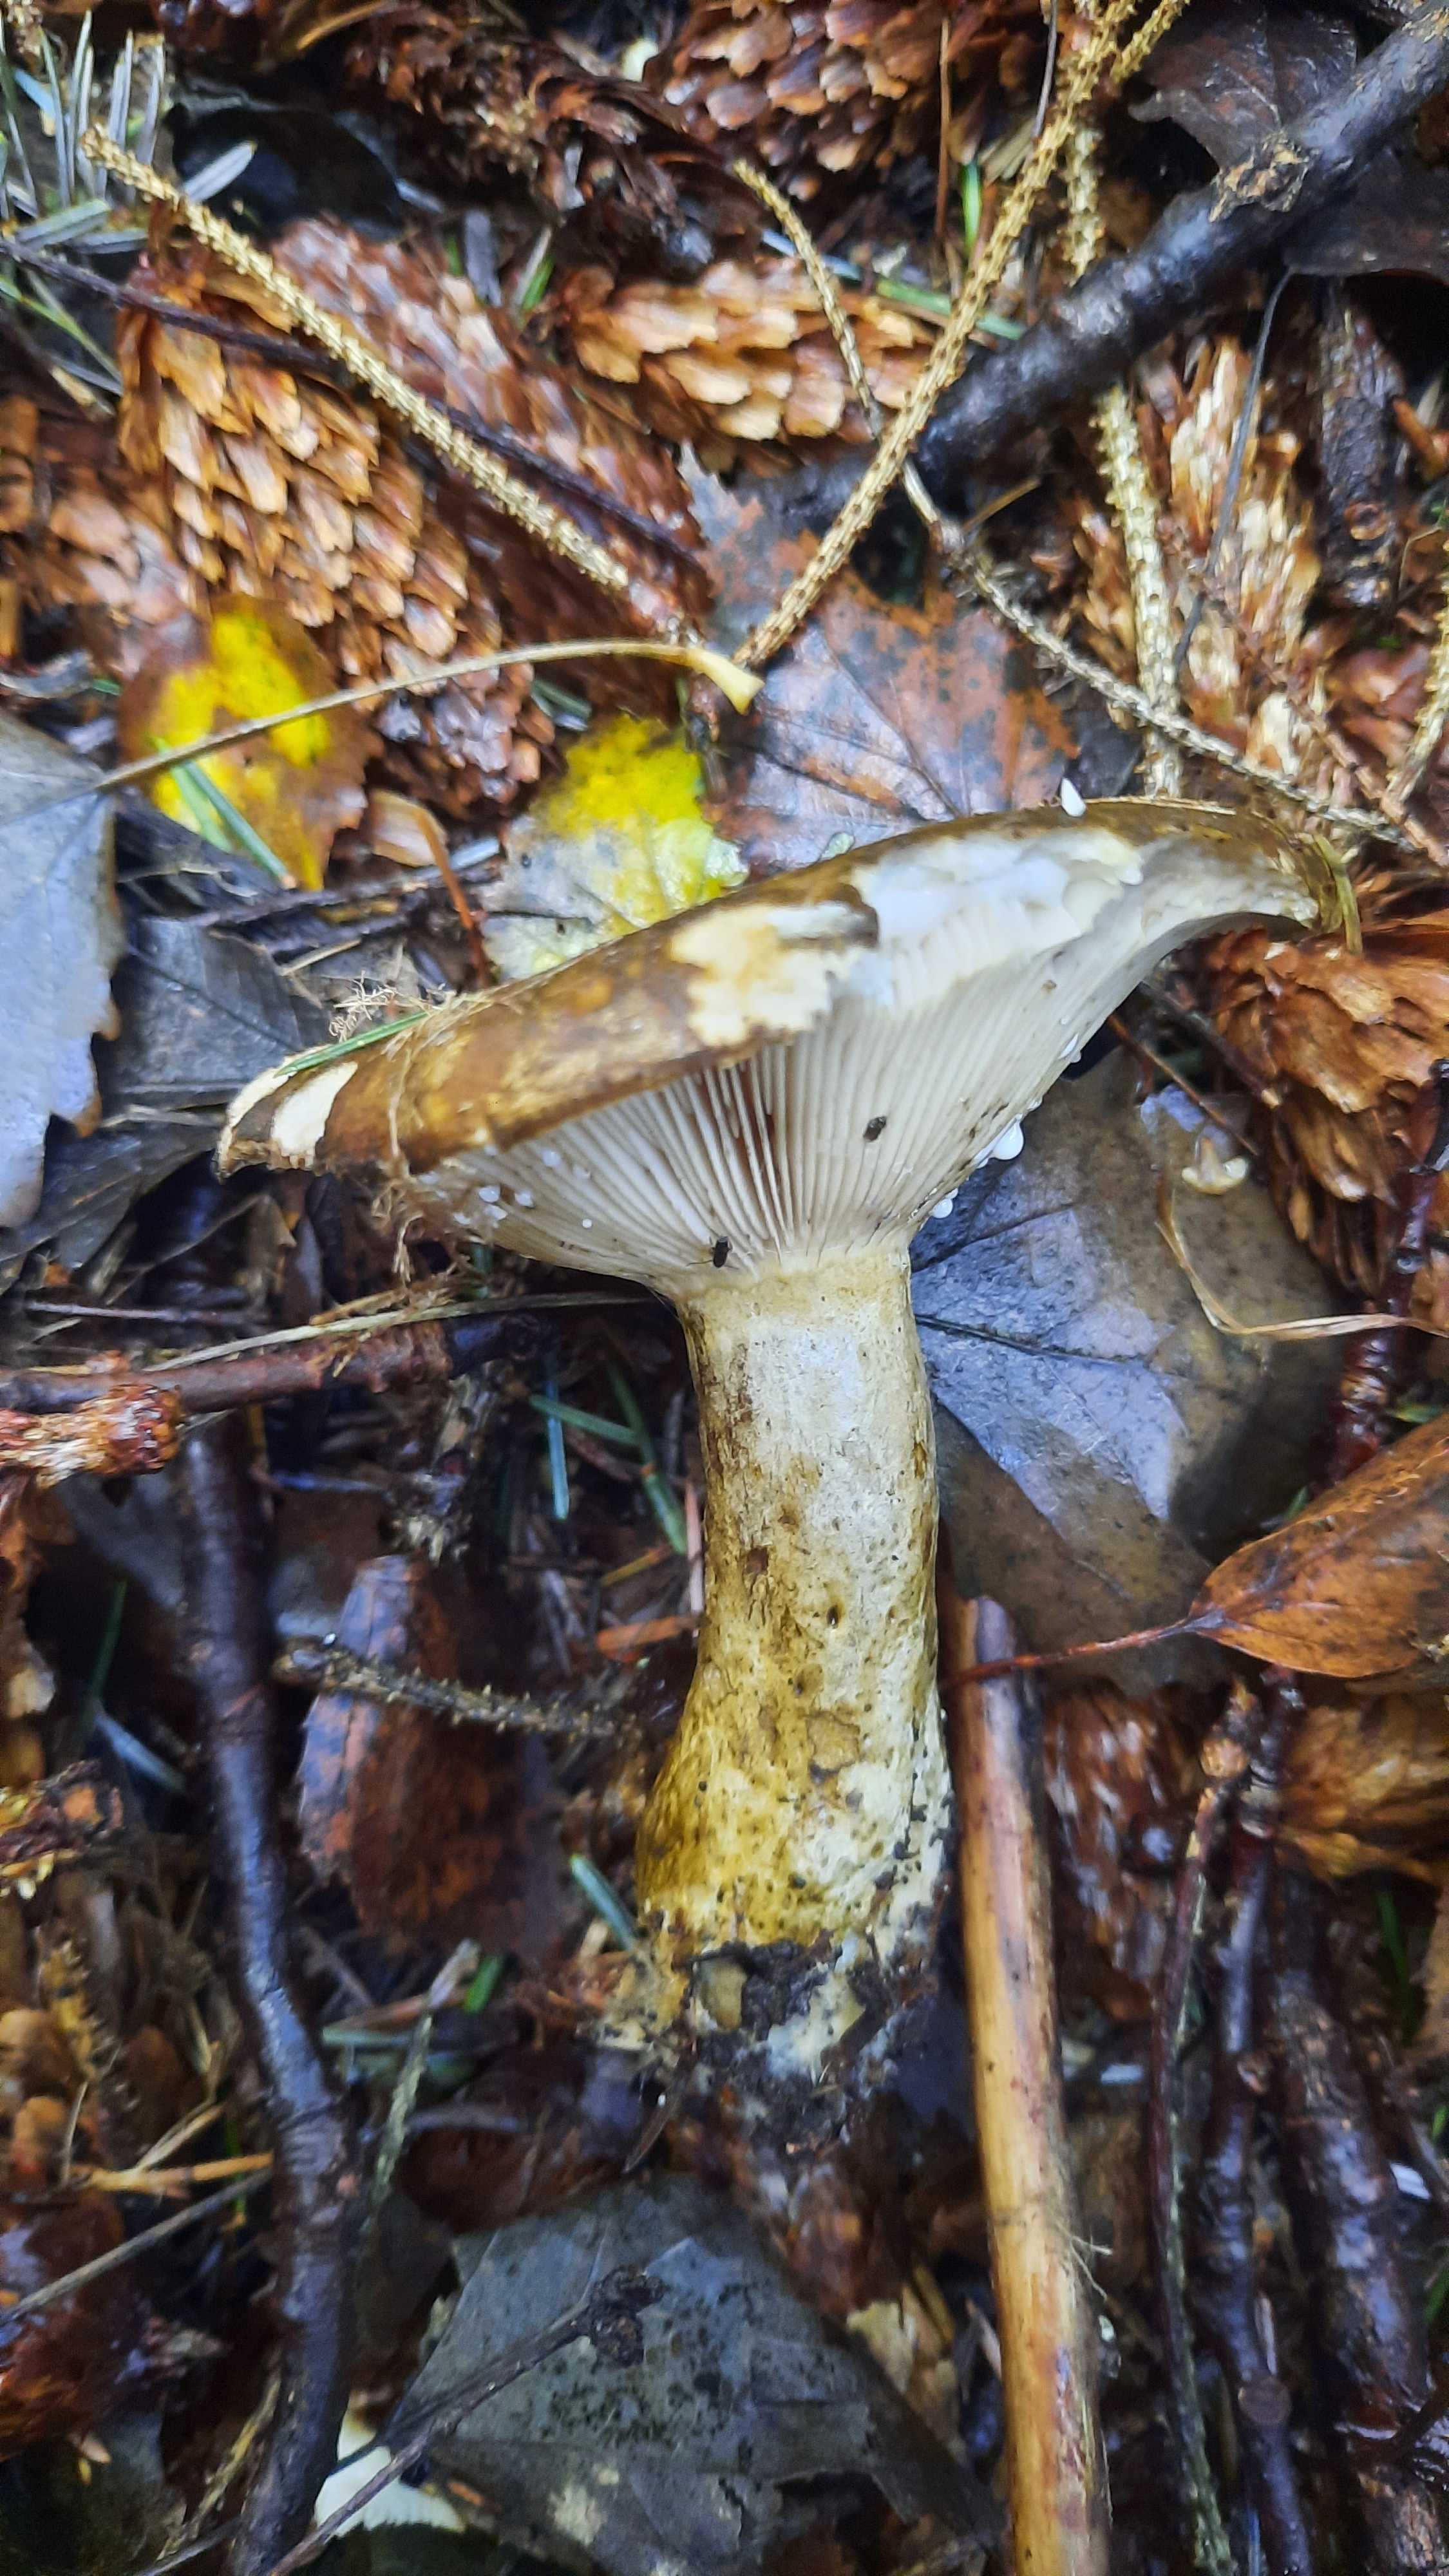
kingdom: Fungi
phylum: Basidiomycota
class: Agaricomycetes
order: Russulales
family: Russulaceae
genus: Lactarius
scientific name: Lactarius necator
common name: manddraber-mælkehat
